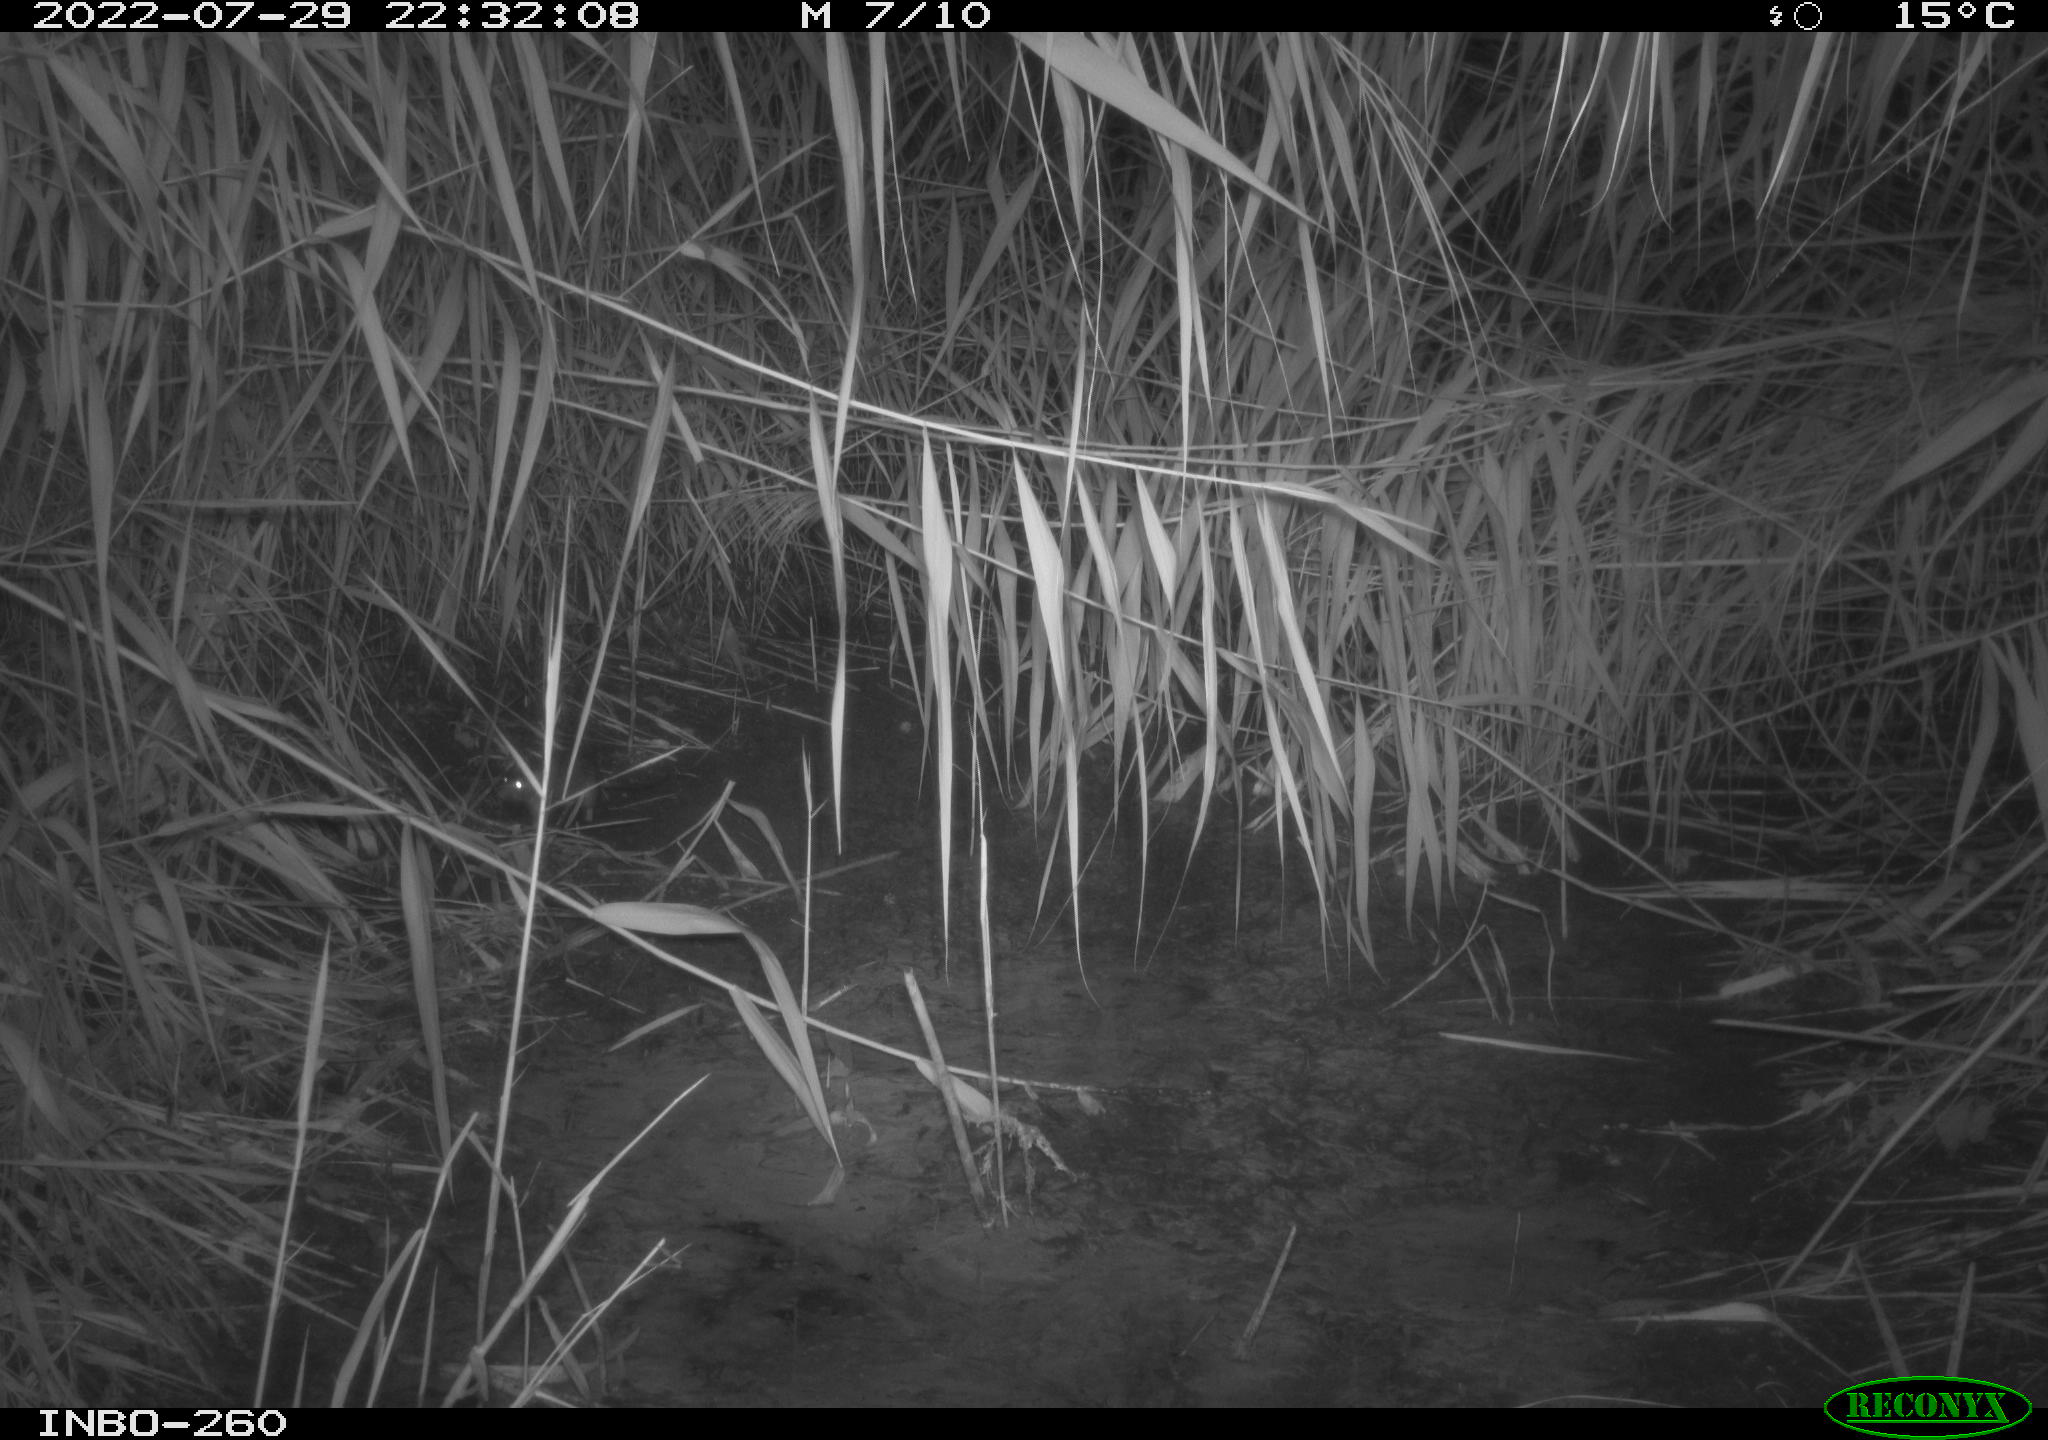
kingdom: Animalia
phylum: Chordata
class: Mammalia
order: Rodentia
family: Muridae
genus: Rattus
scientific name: Rattus norvegicus
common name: Brown rat
